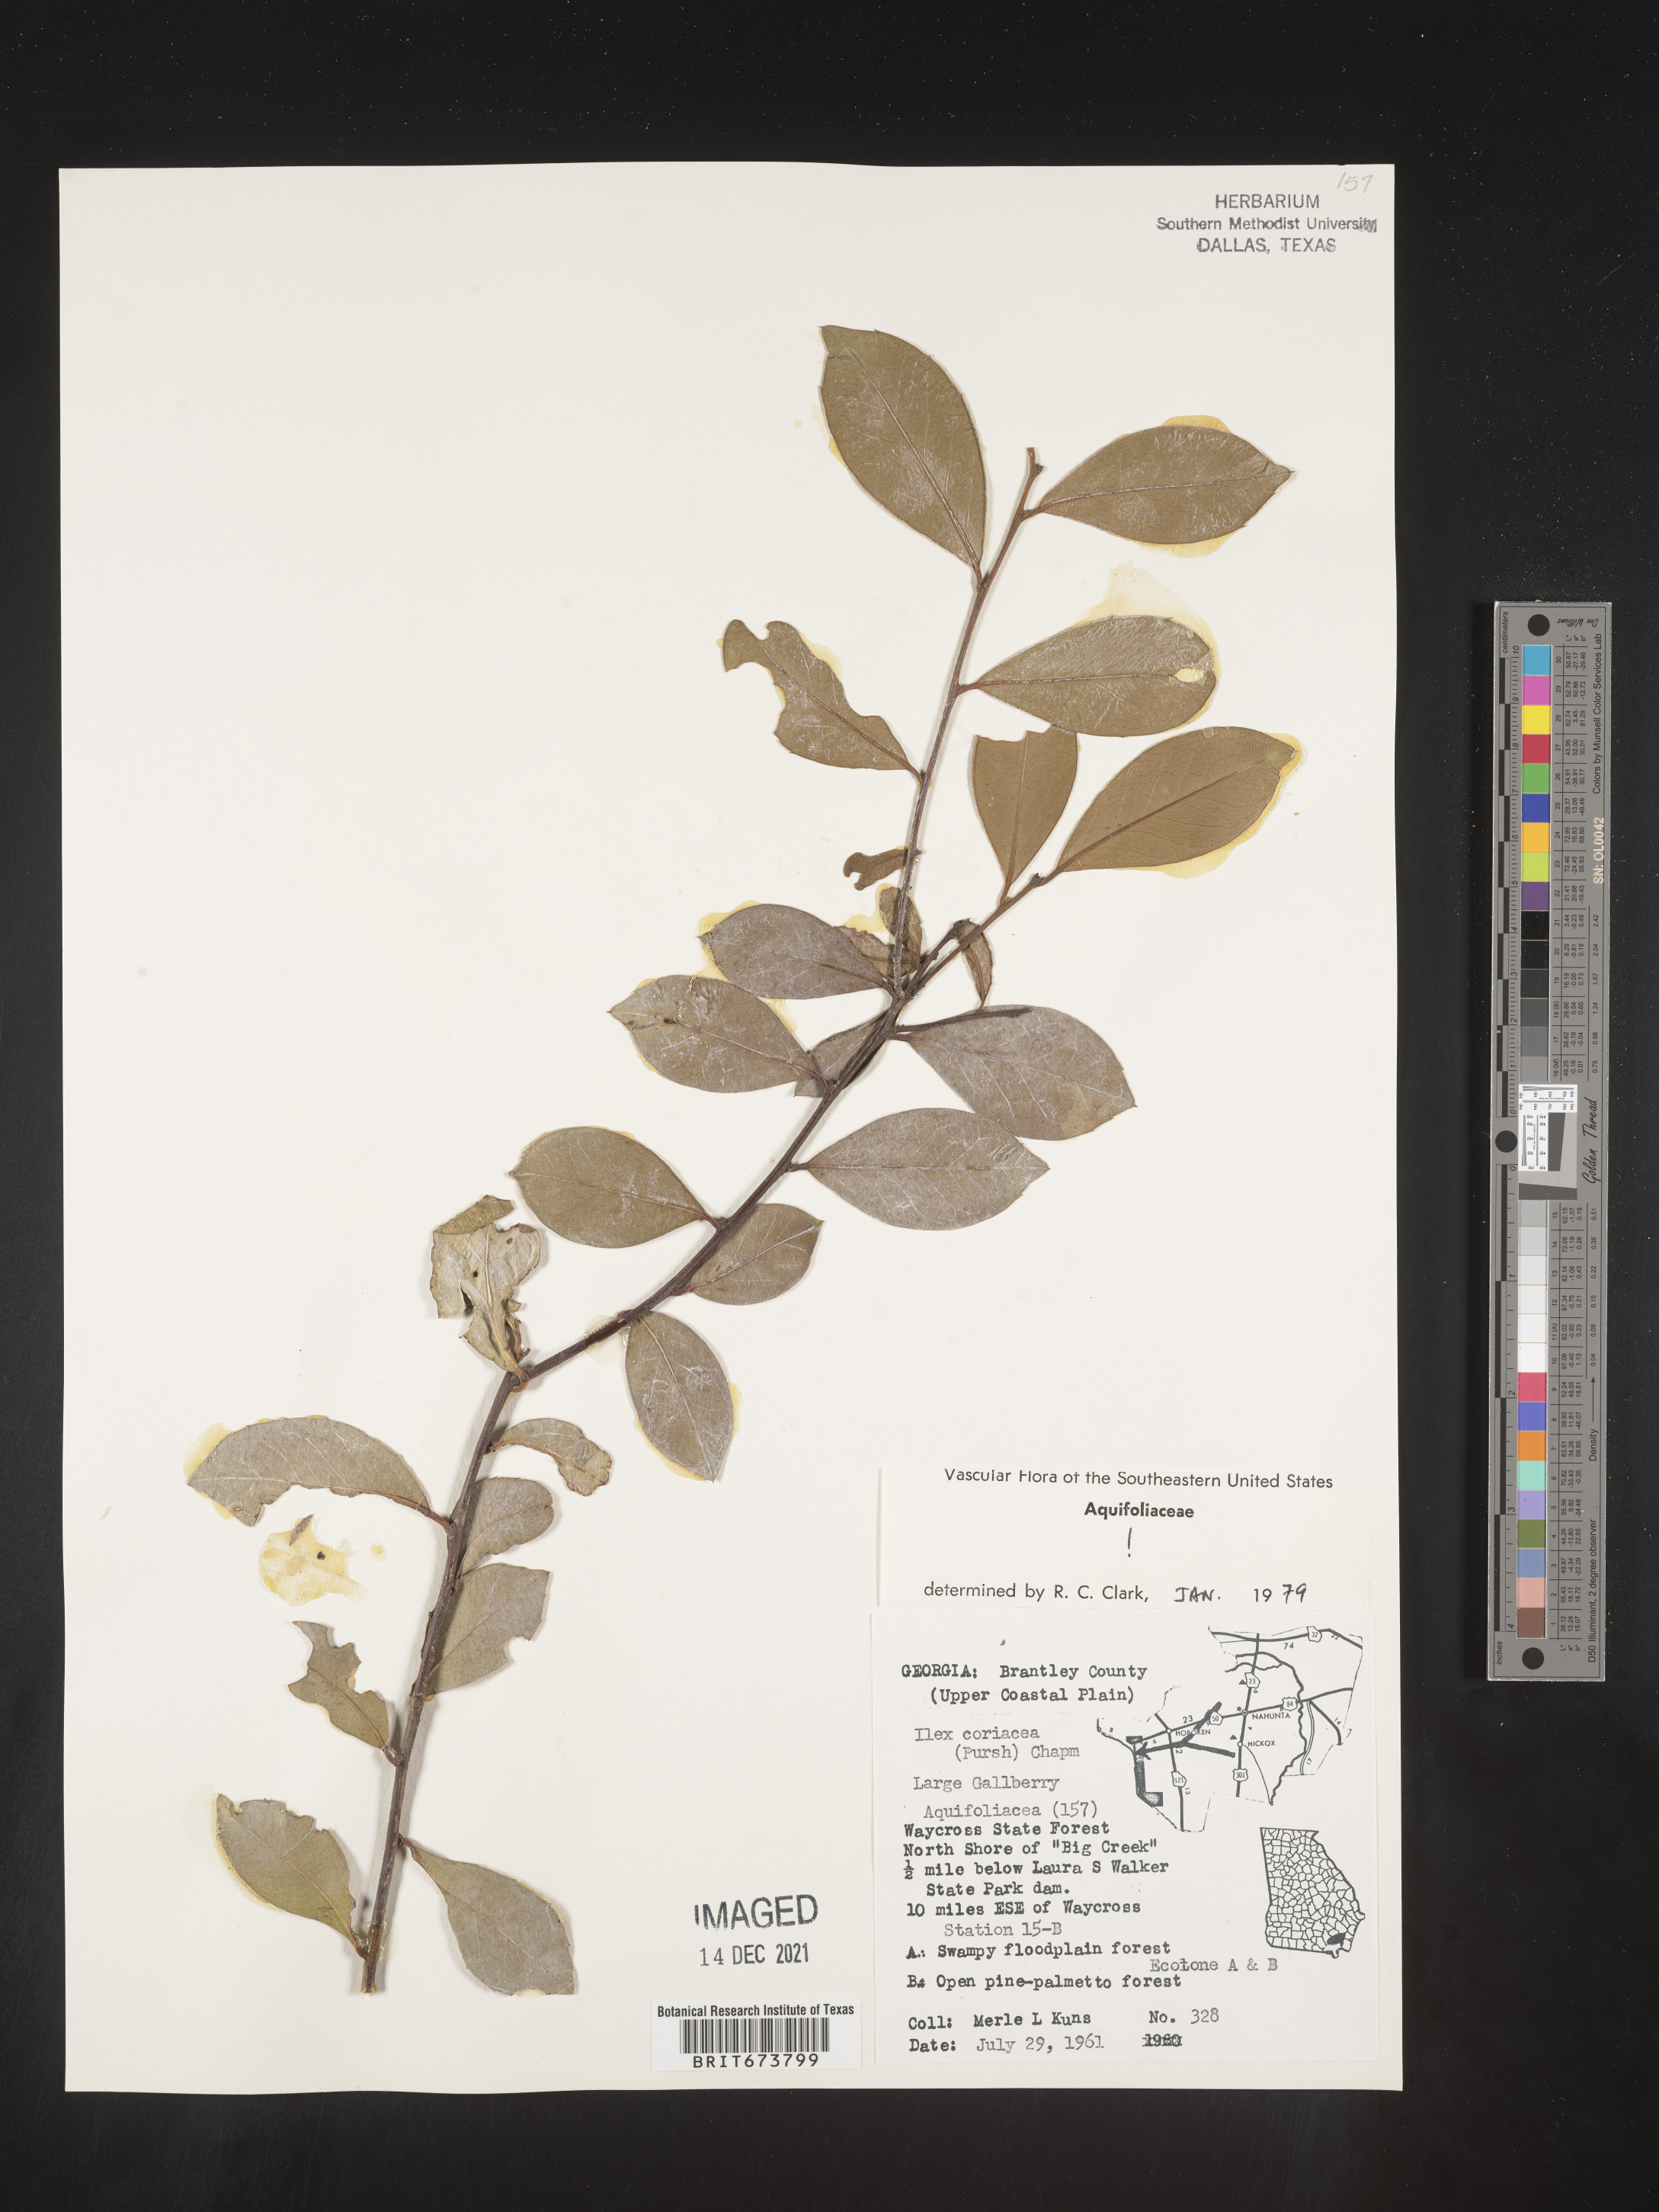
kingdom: Plantae
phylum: Tracheophyta
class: Magnoliopsida
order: Aquifoliales
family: Aquifoliaceae
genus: Ilex
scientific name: Ilex coriacea
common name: Sweet gallberry
